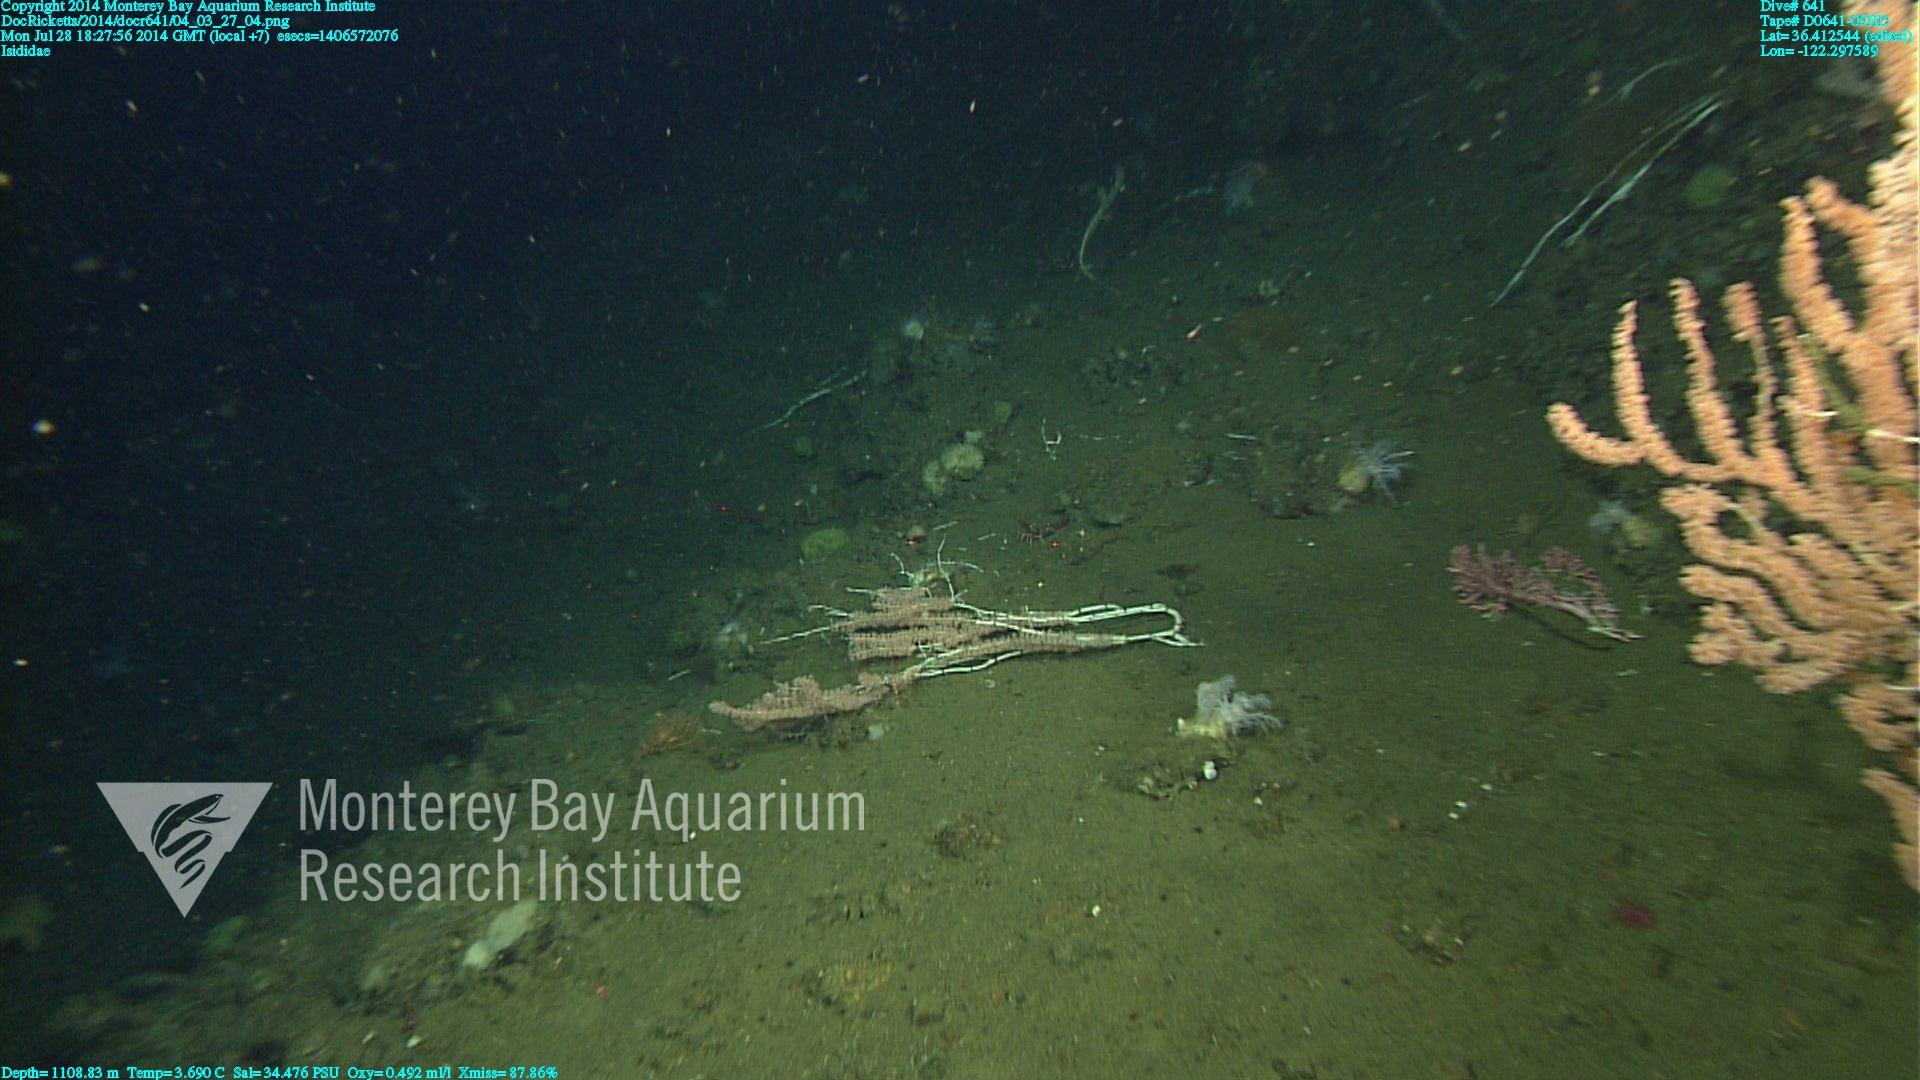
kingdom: Animalia
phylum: Cnidaria
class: Anthozoa
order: Scleralcyonacea
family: Keratoisididae
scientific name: Keratoisididae
